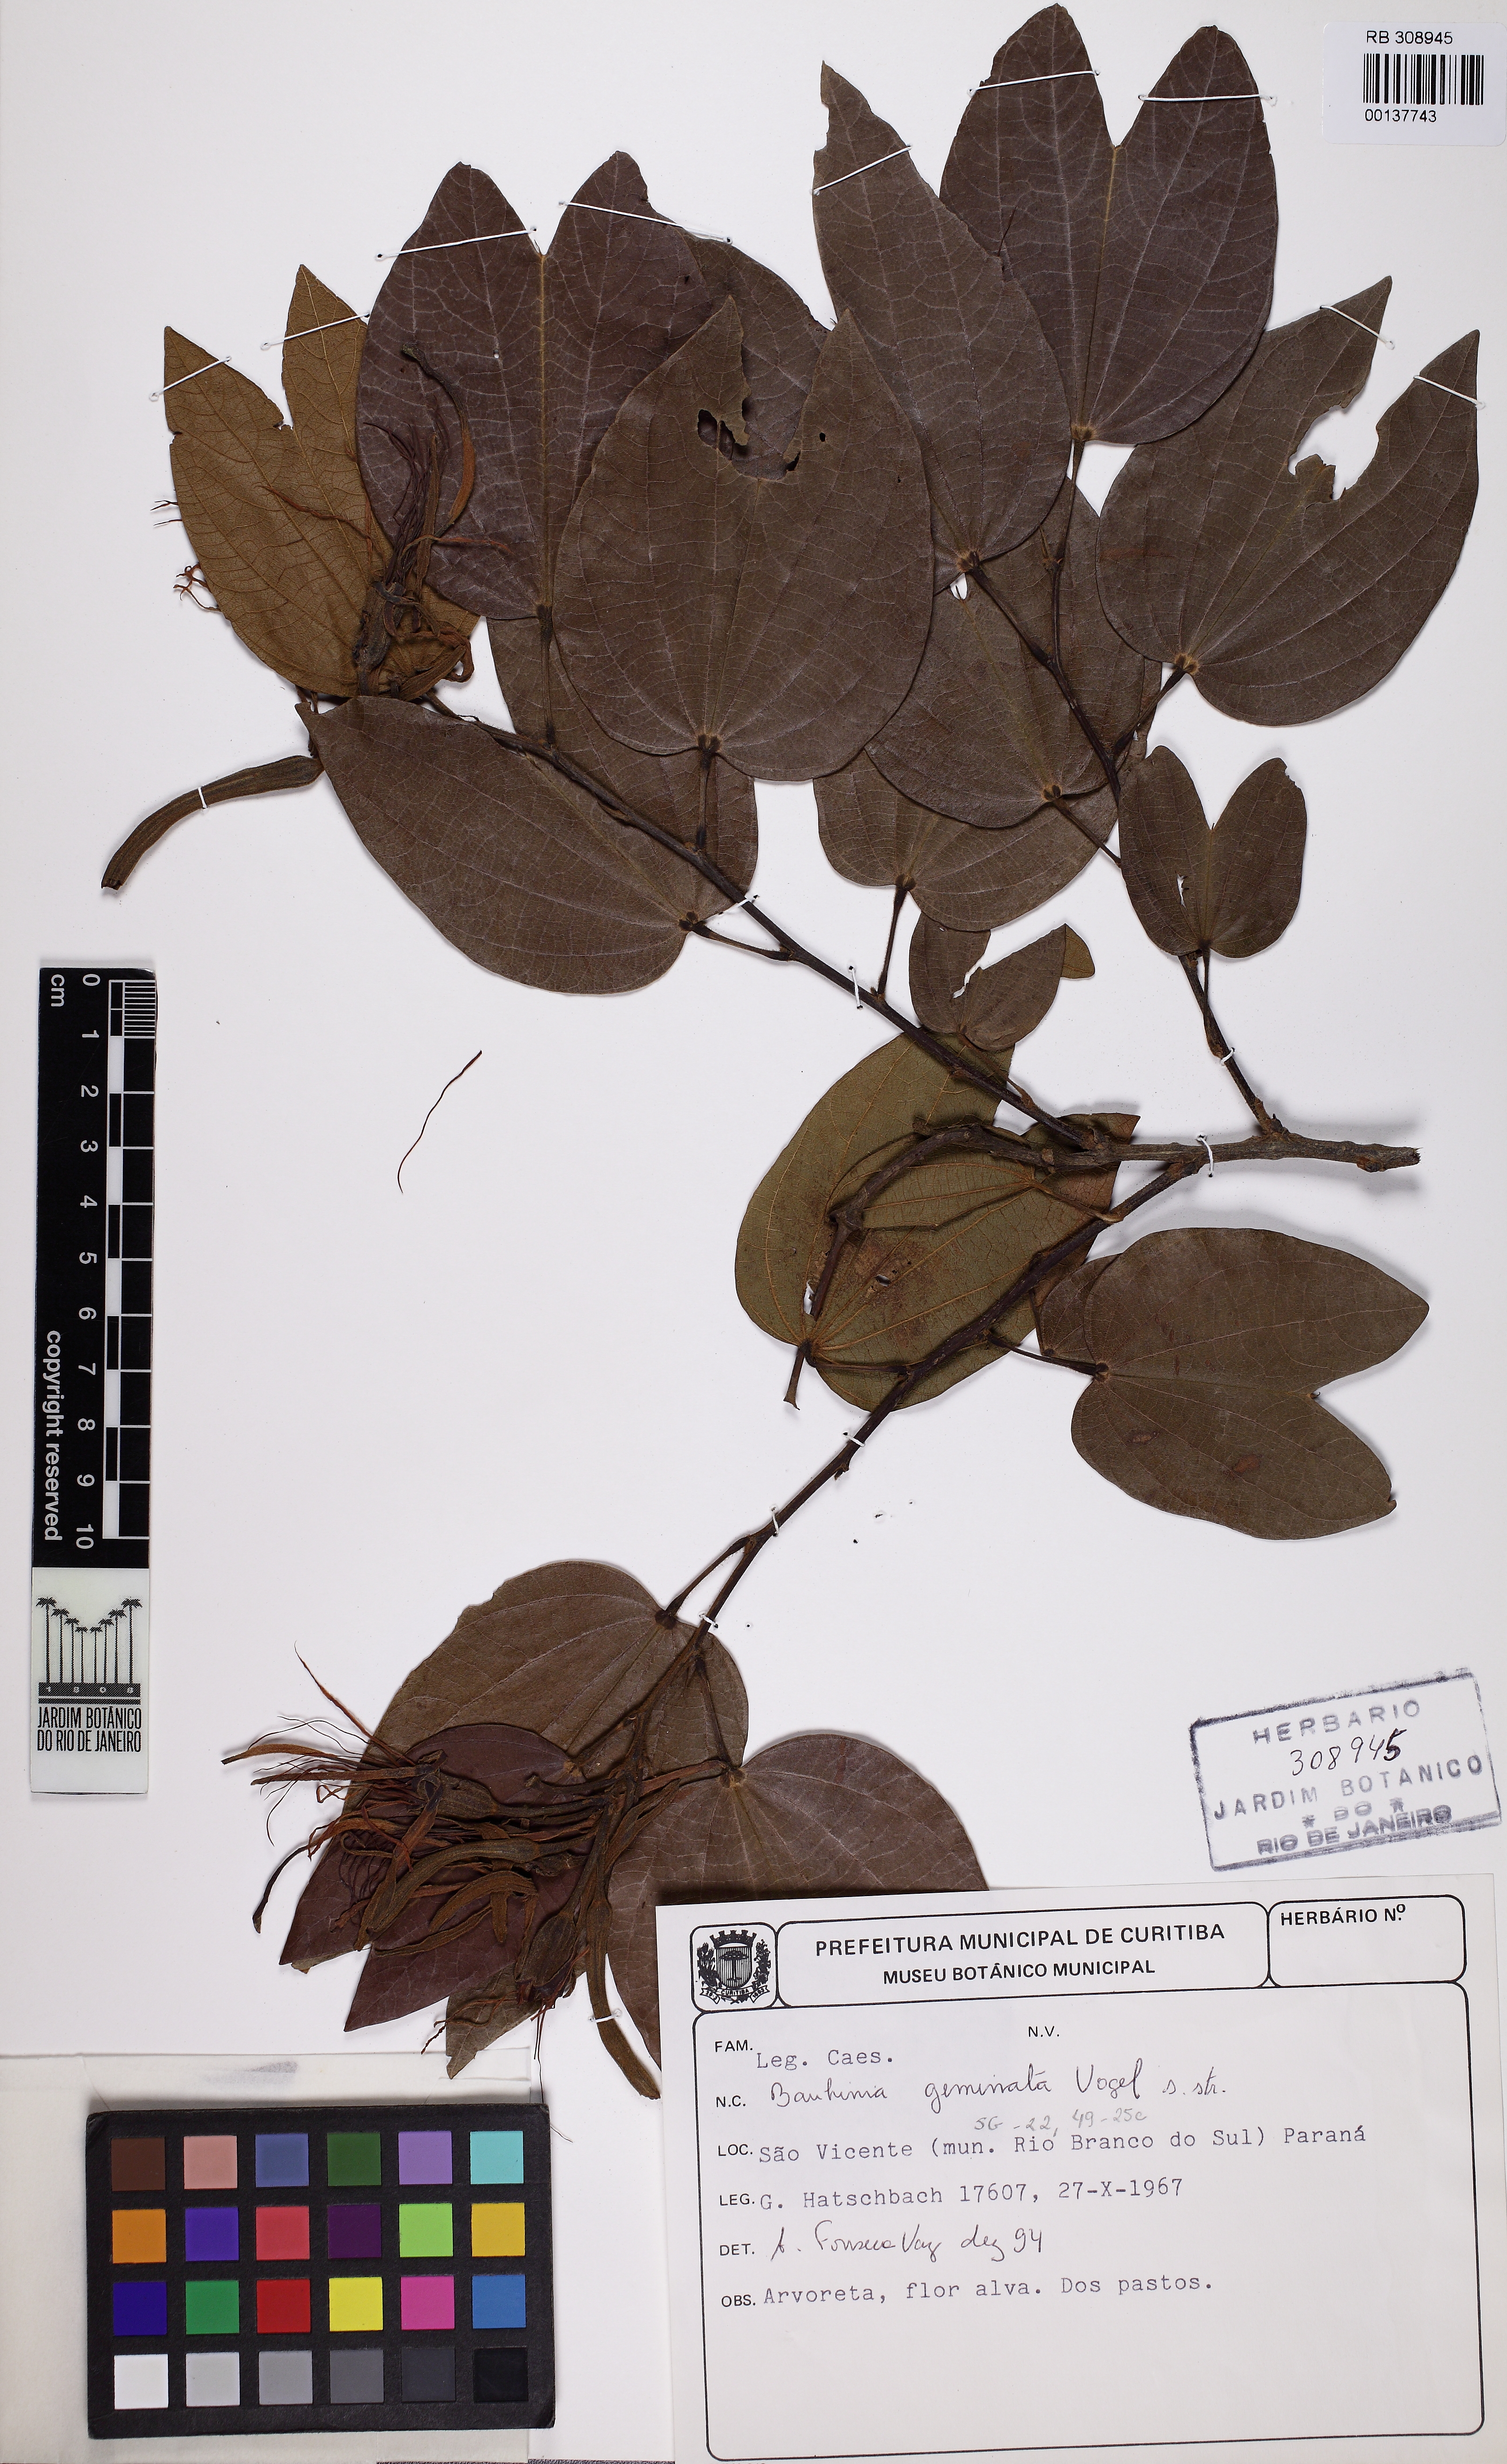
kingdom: Plantae
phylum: Tracheophyta
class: Magnoliopsida
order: Fabales
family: Fabaceae
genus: Bauhinia
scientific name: Bauhinia longifolia
